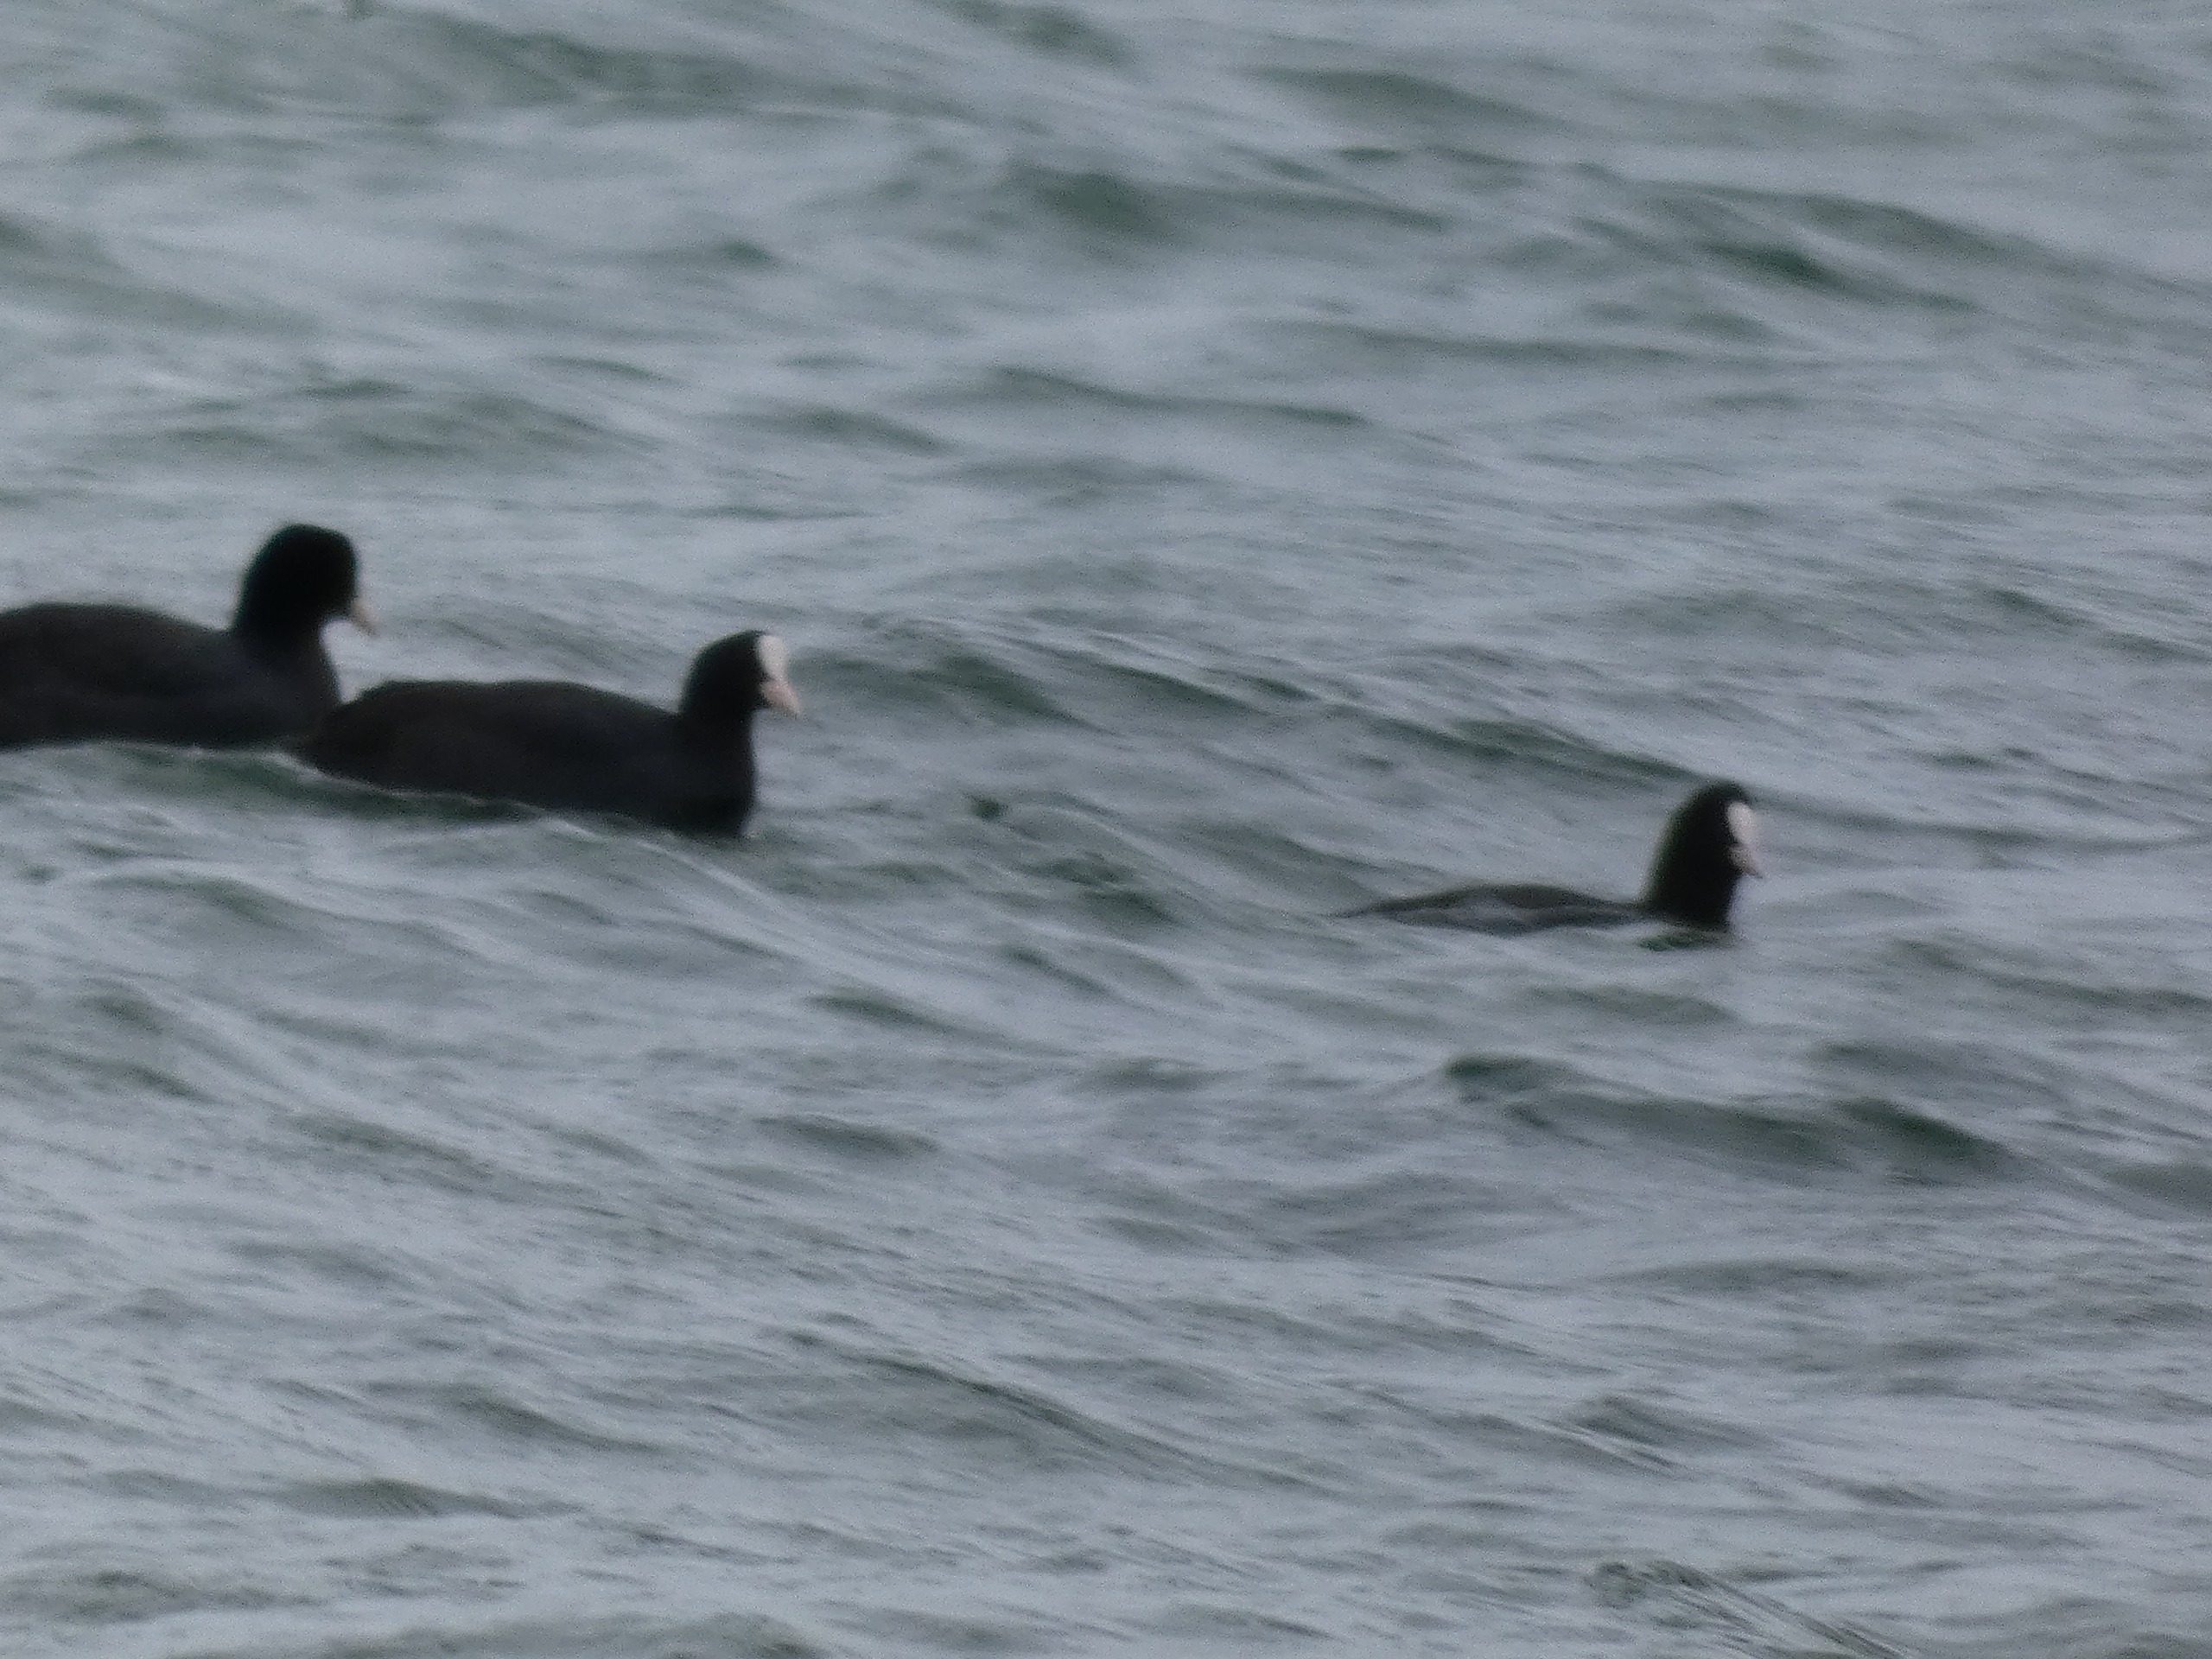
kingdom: Animalia
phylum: Chordata
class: Aves
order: Gruiformes
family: Rallidae
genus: Fulica
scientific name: Fulica atra
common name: Blishøne
